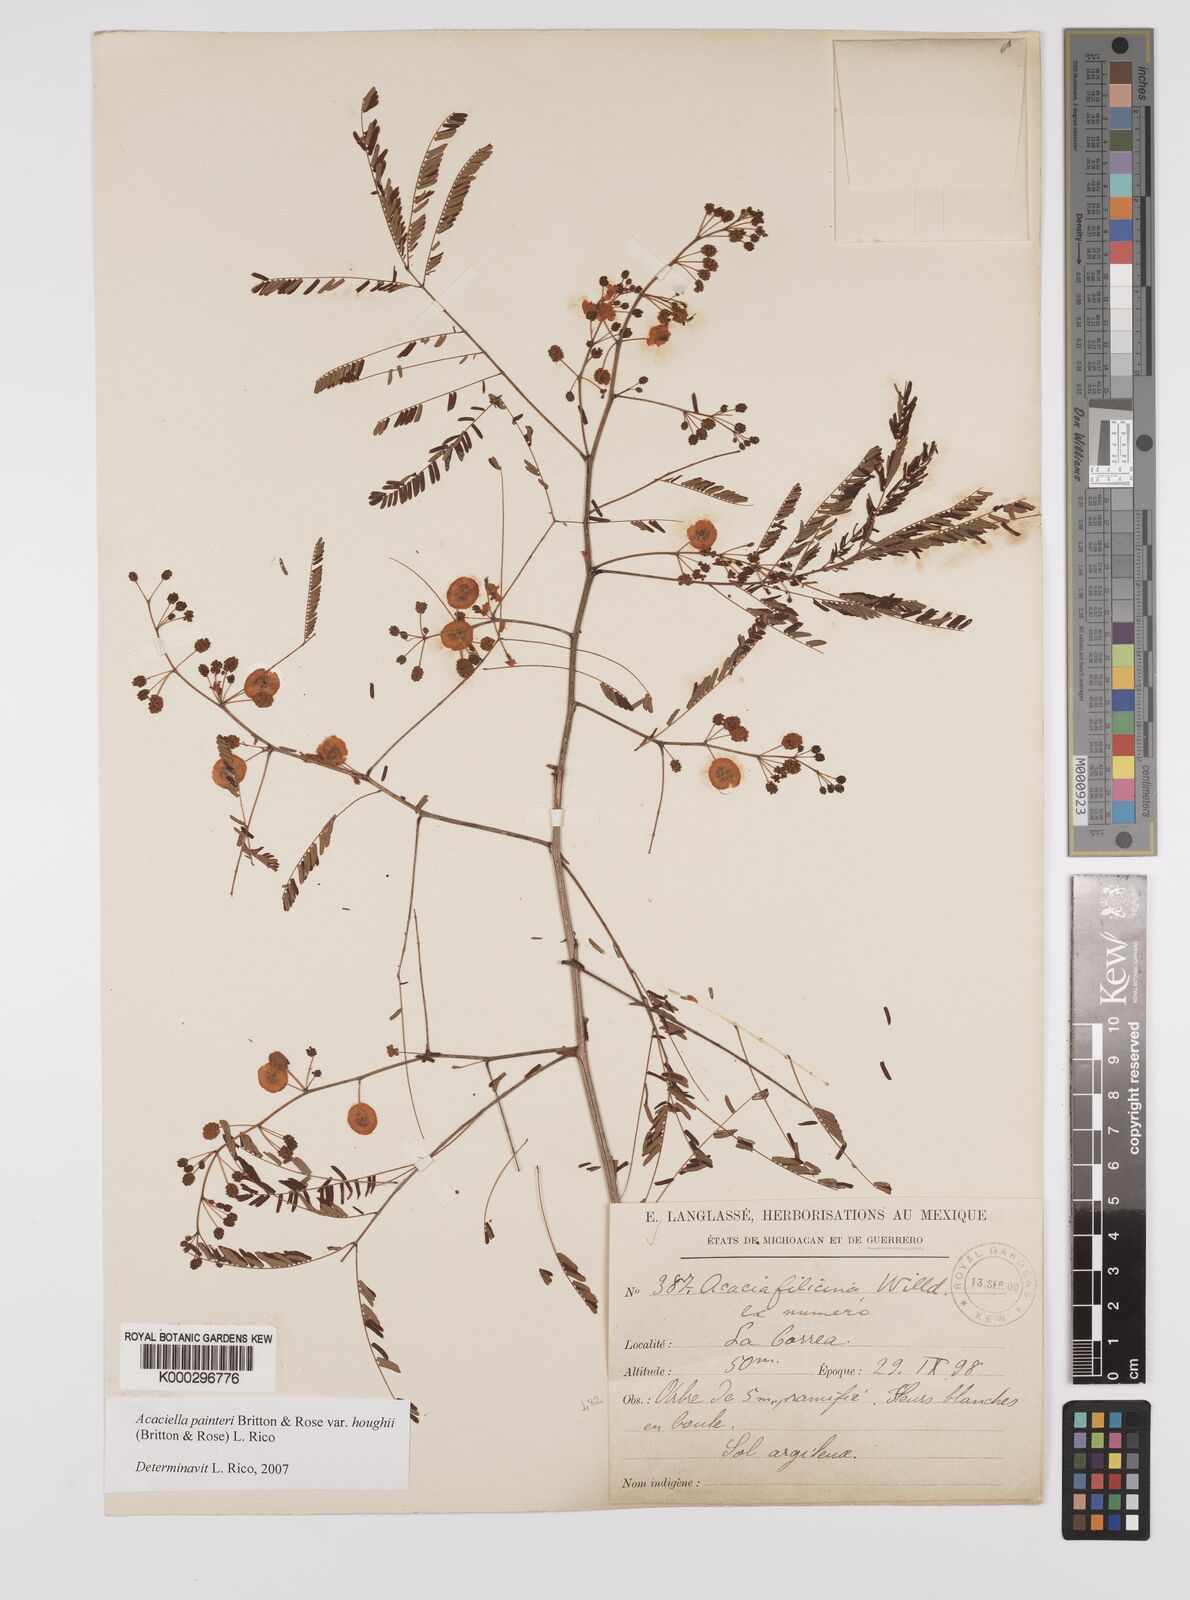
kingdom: Plantae
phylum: Tracheophyta
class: Magnoliopsida
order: Fabales
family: Fabaceae
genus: Acaciella
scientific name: Acaciella painteri
